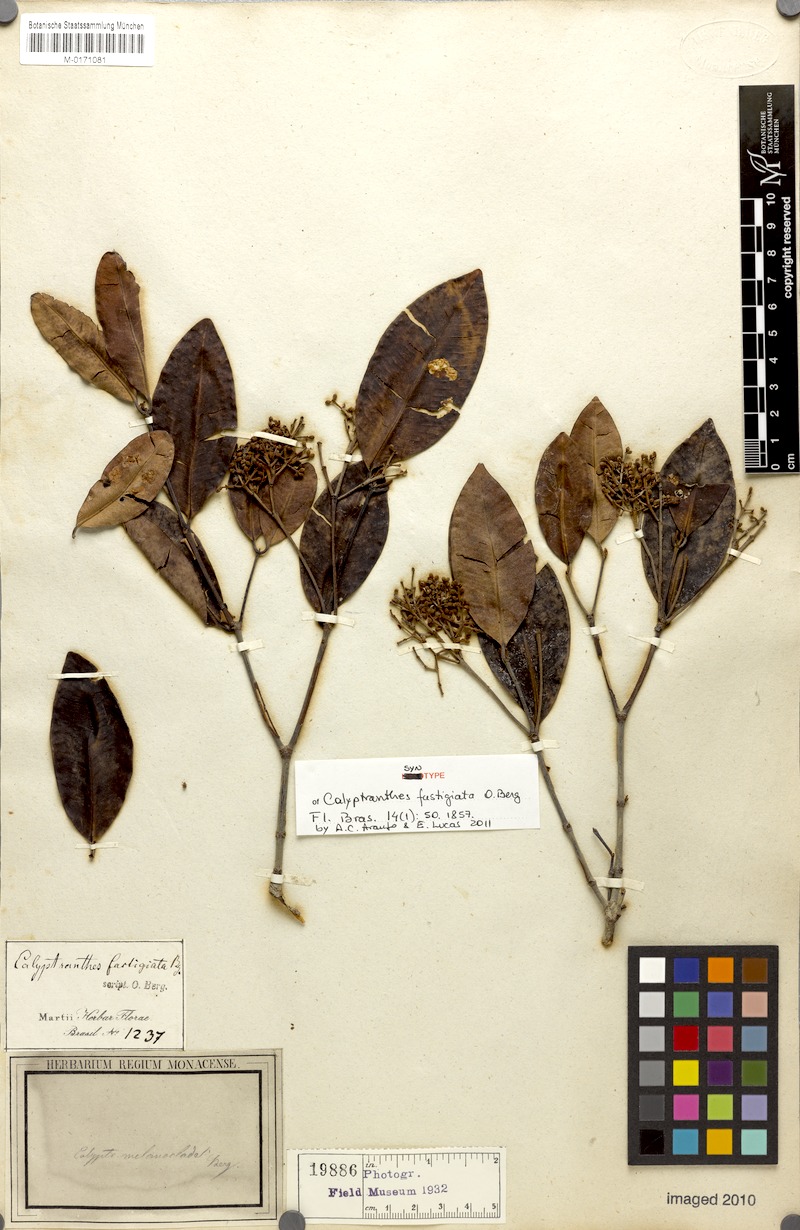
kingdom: Plantae
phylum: Tracheophyta
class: Magnoliopsida
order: Myrtales
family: Myrtaceae
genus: Syzygium
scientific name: Syzygium fastigiatum
